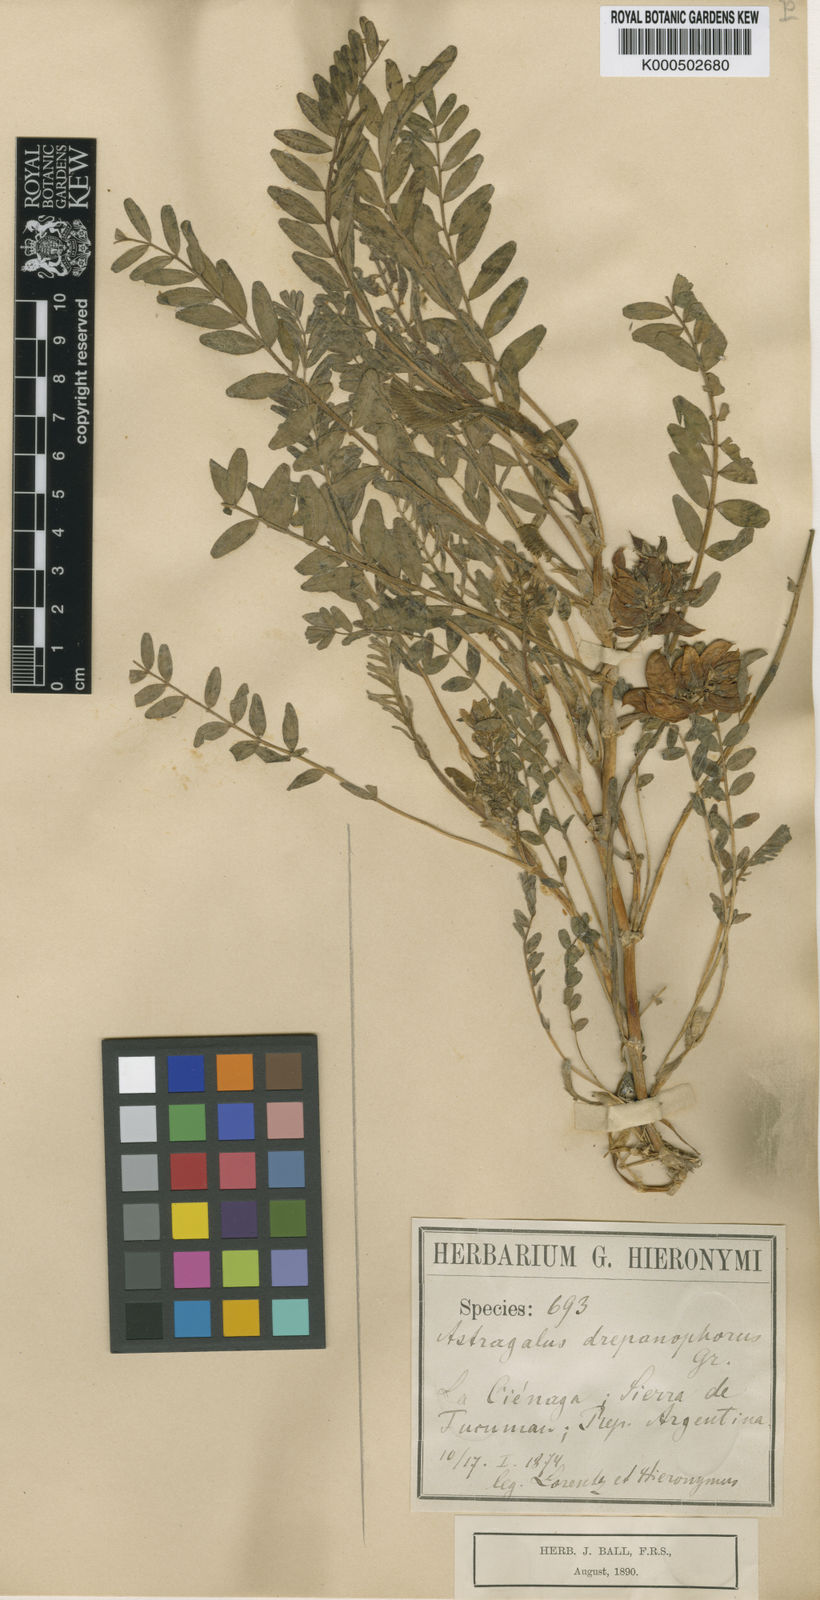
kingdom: Plantae
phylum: Tracheophyta
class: Magnoliopsida
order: Fabales
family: Fabaceae
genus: Astragalus
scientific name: Astragalus arequipensis
